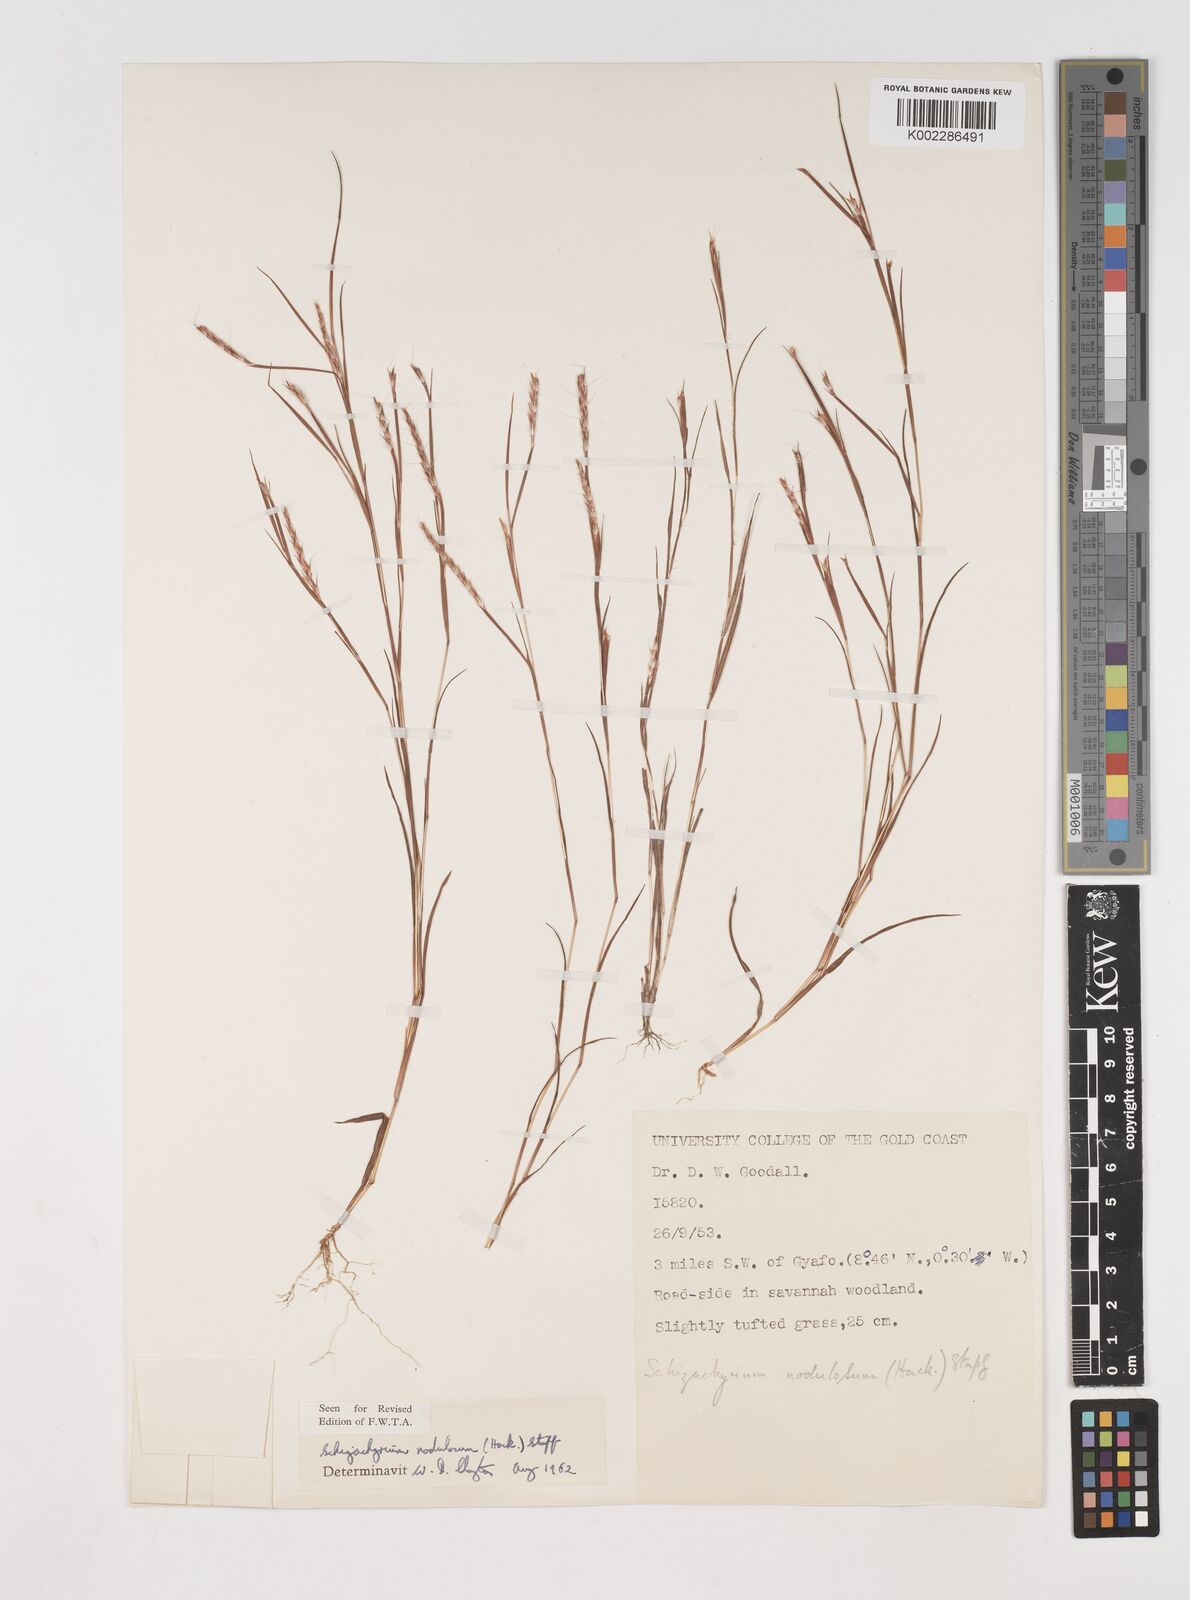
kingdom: Plantae
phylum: Tracheophyta
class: Liliopsida
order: Poales
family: Poaceae
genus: Schizachyrium
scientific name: Schizachyrium nodulosum
